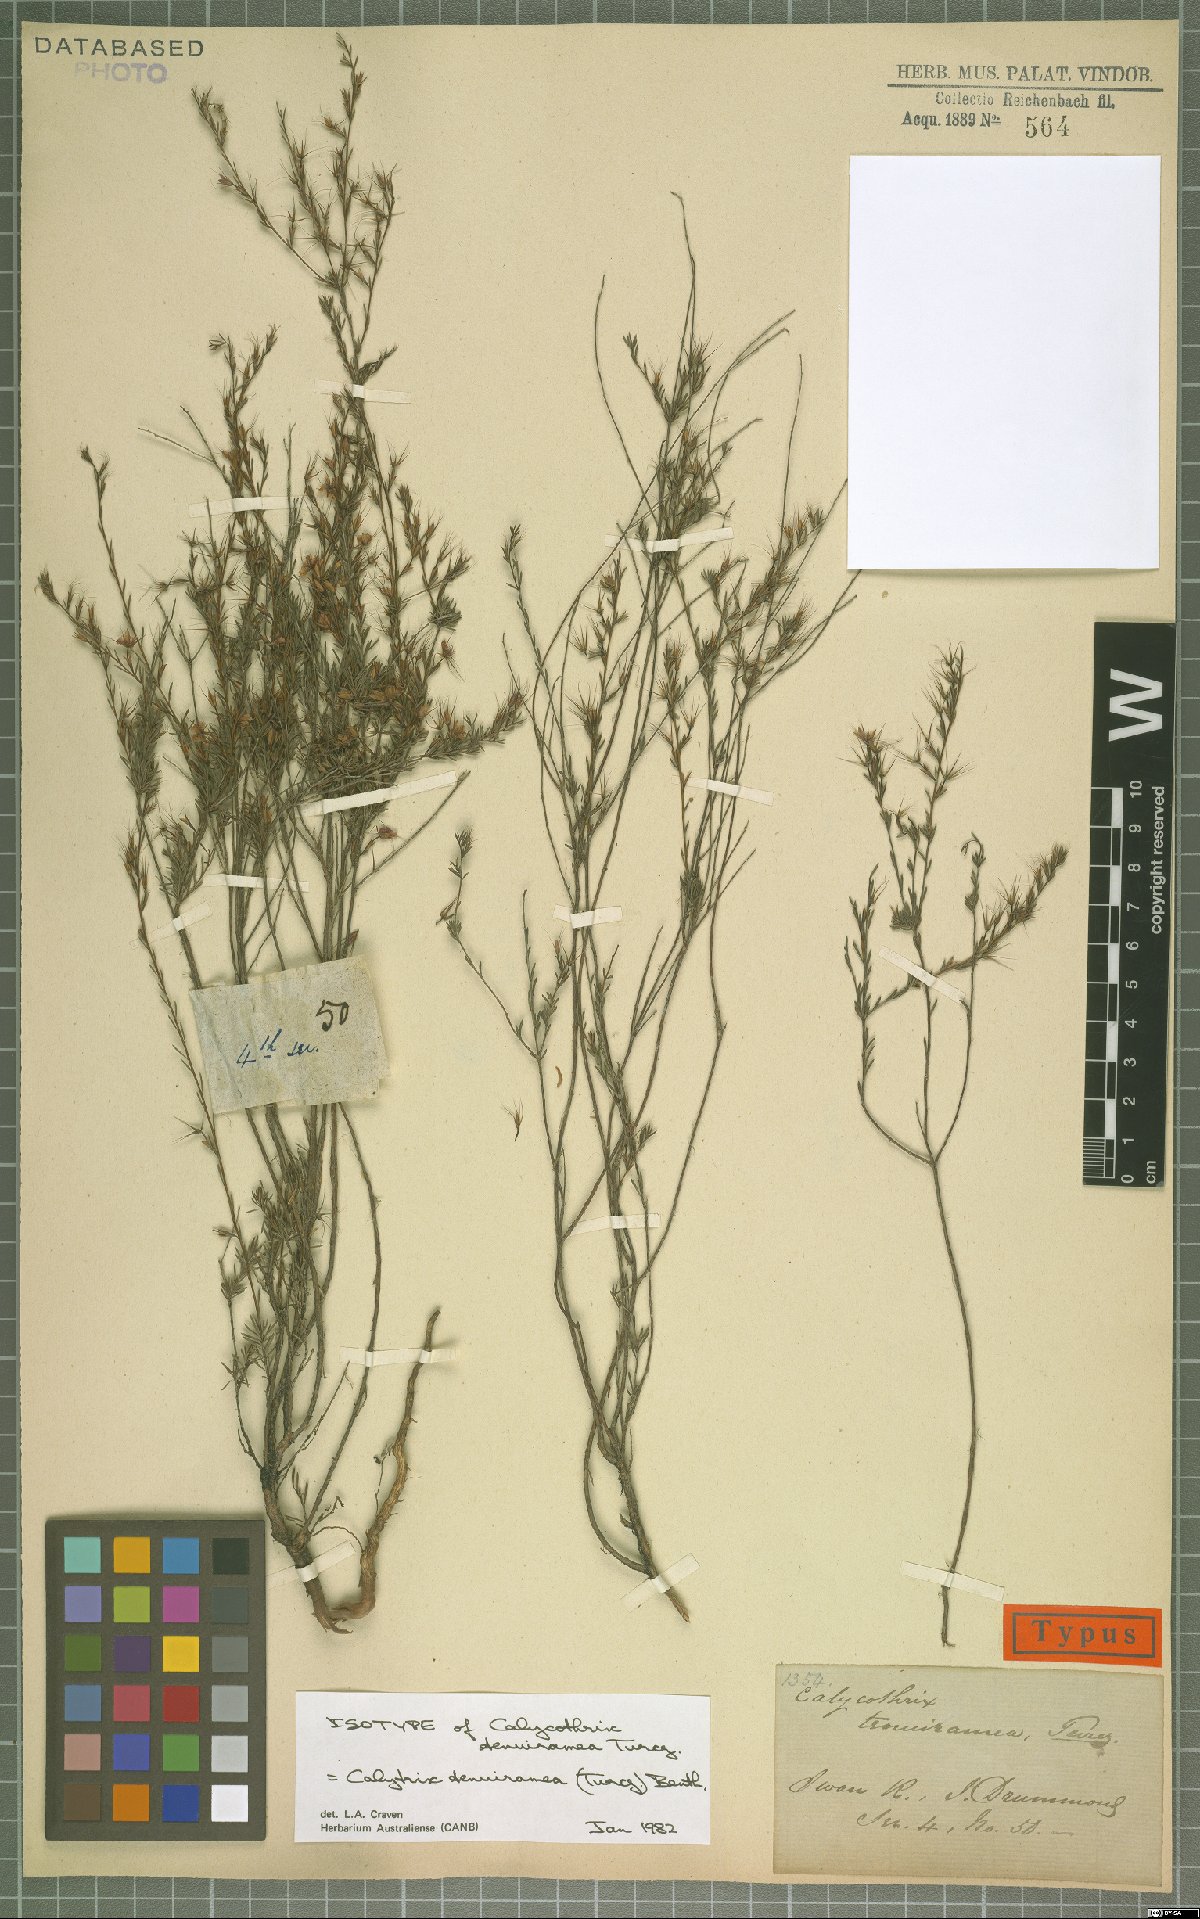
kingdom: Plantae
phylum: Tracheophyta
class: Magnoliopsida
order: Myrtales
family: Myrtaceae
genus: Calytrix
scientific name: Calytrix tenuiramea
